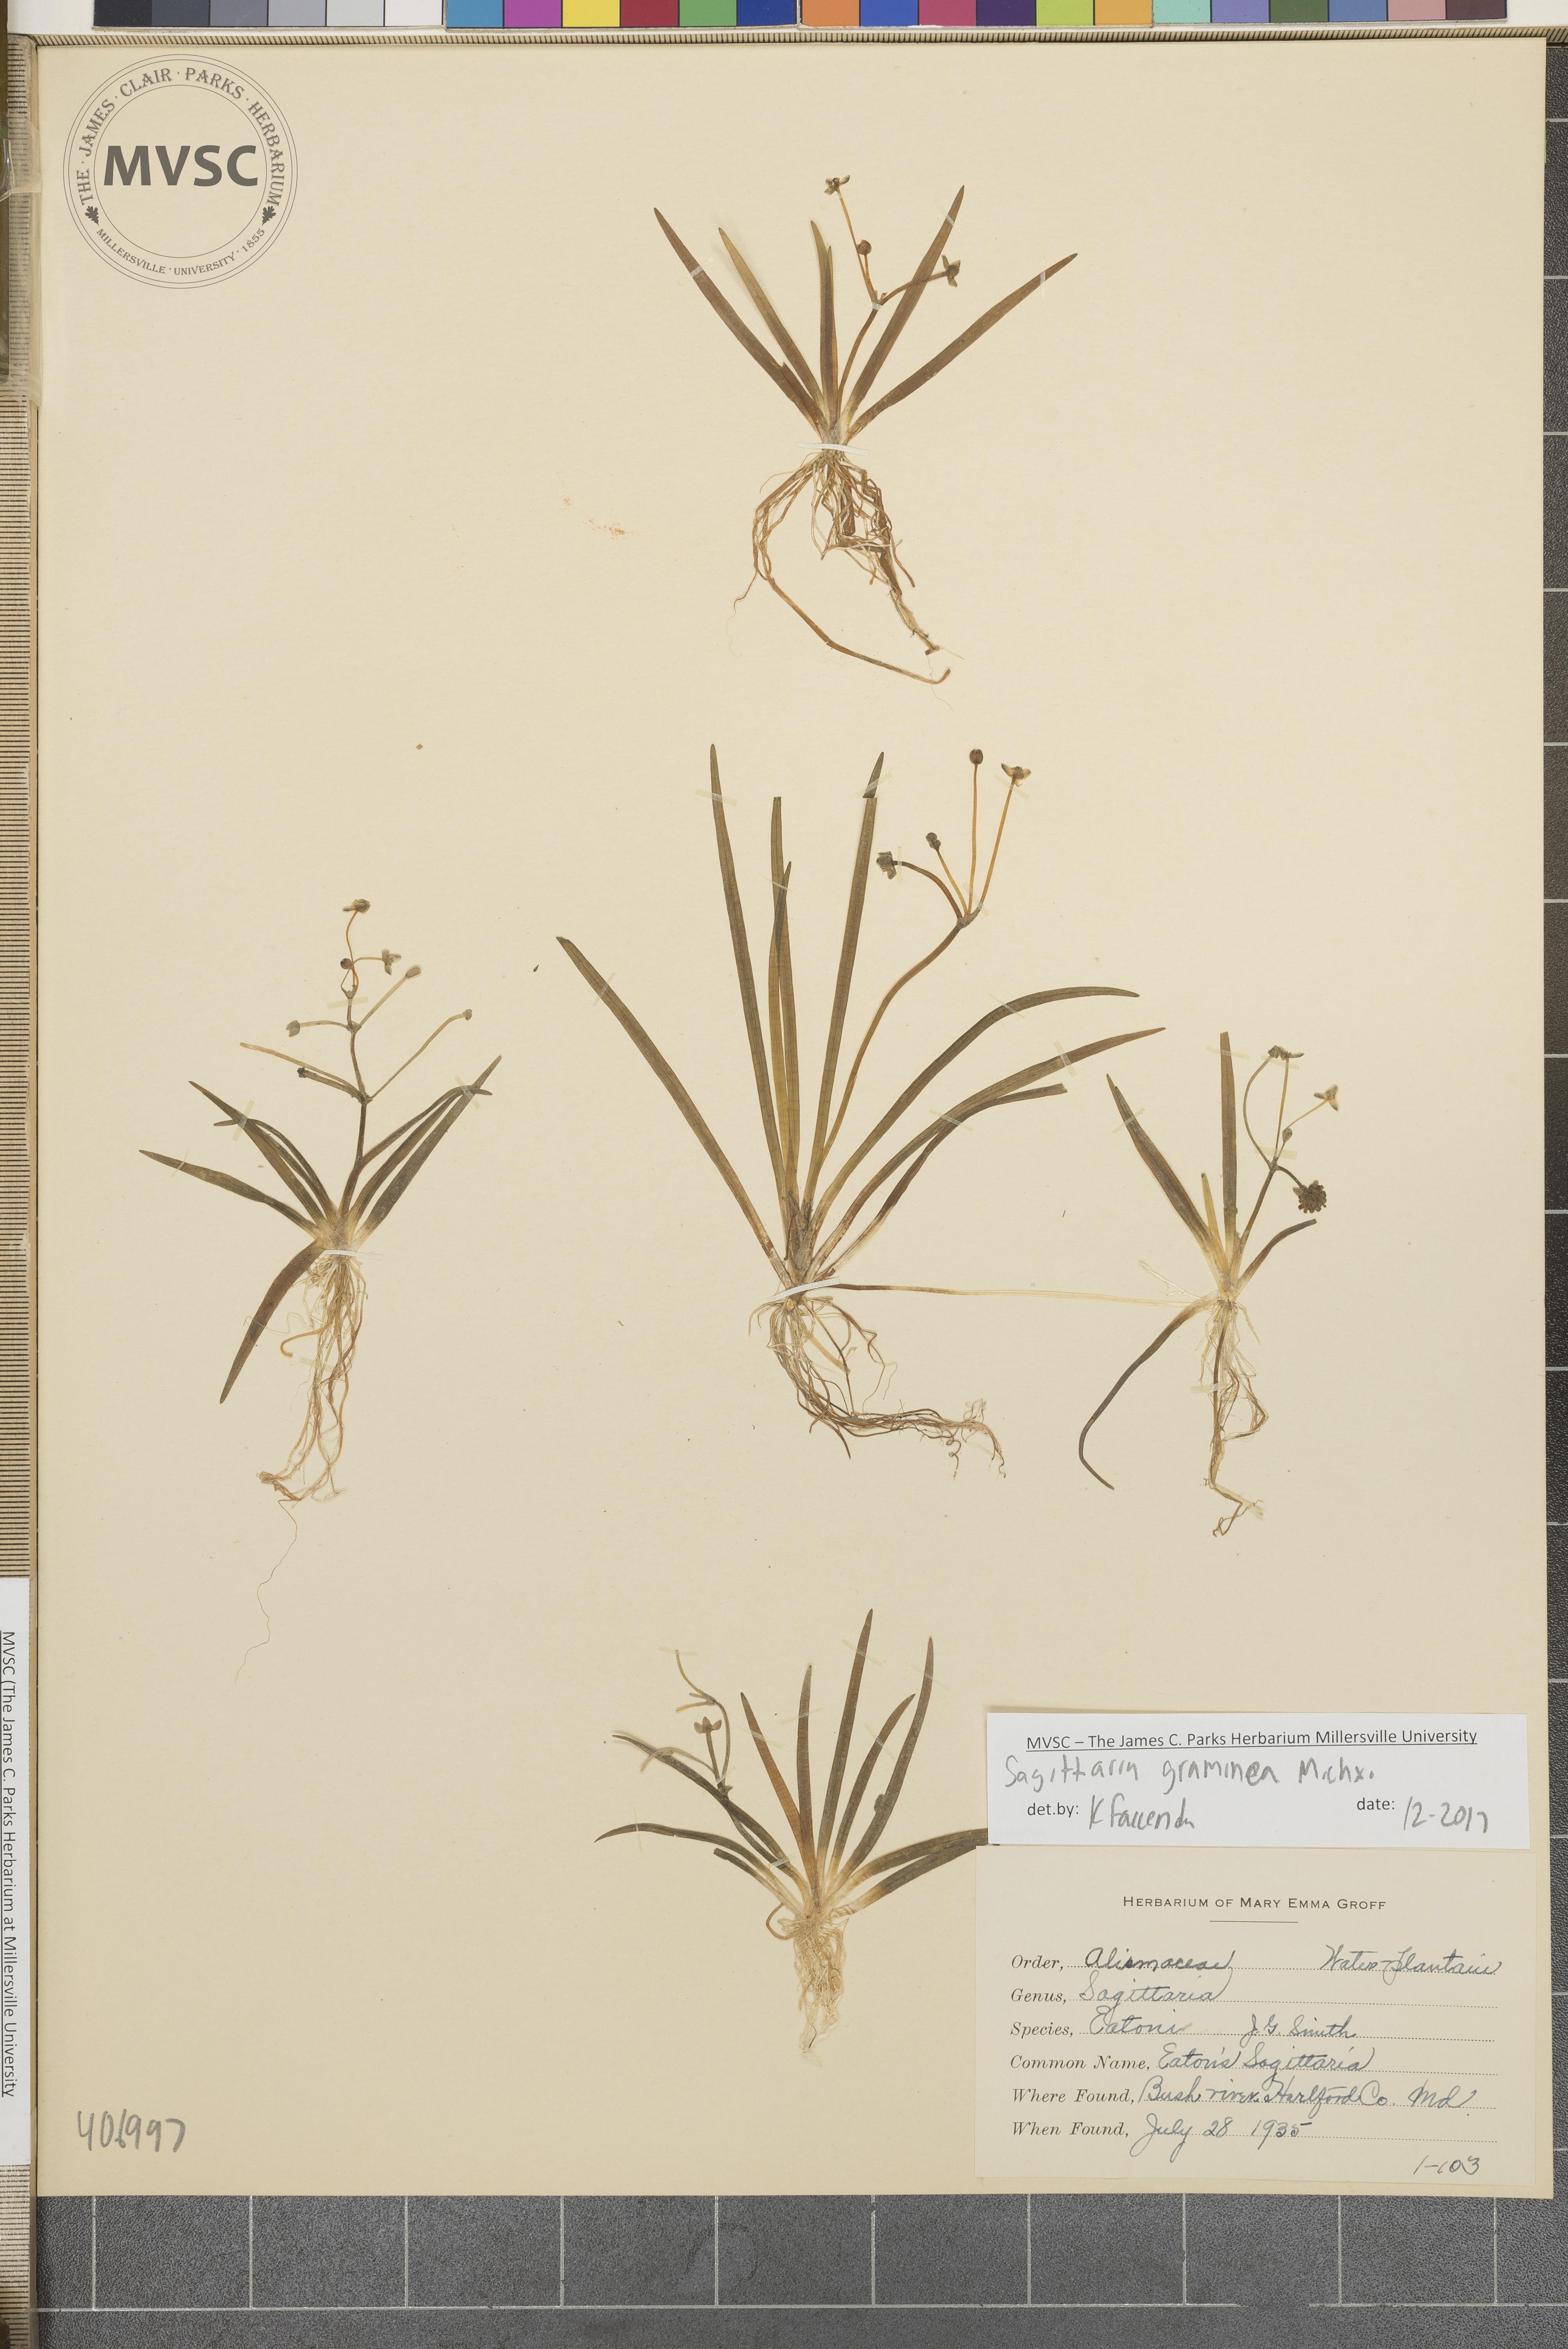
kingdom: Plantae
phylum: Tracheophyta
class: Liliopsida
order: Alismatales
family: Alismataceae
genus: Sagittaria
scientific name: Sagittaria graminea
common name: Grass-leaved arrowhead
